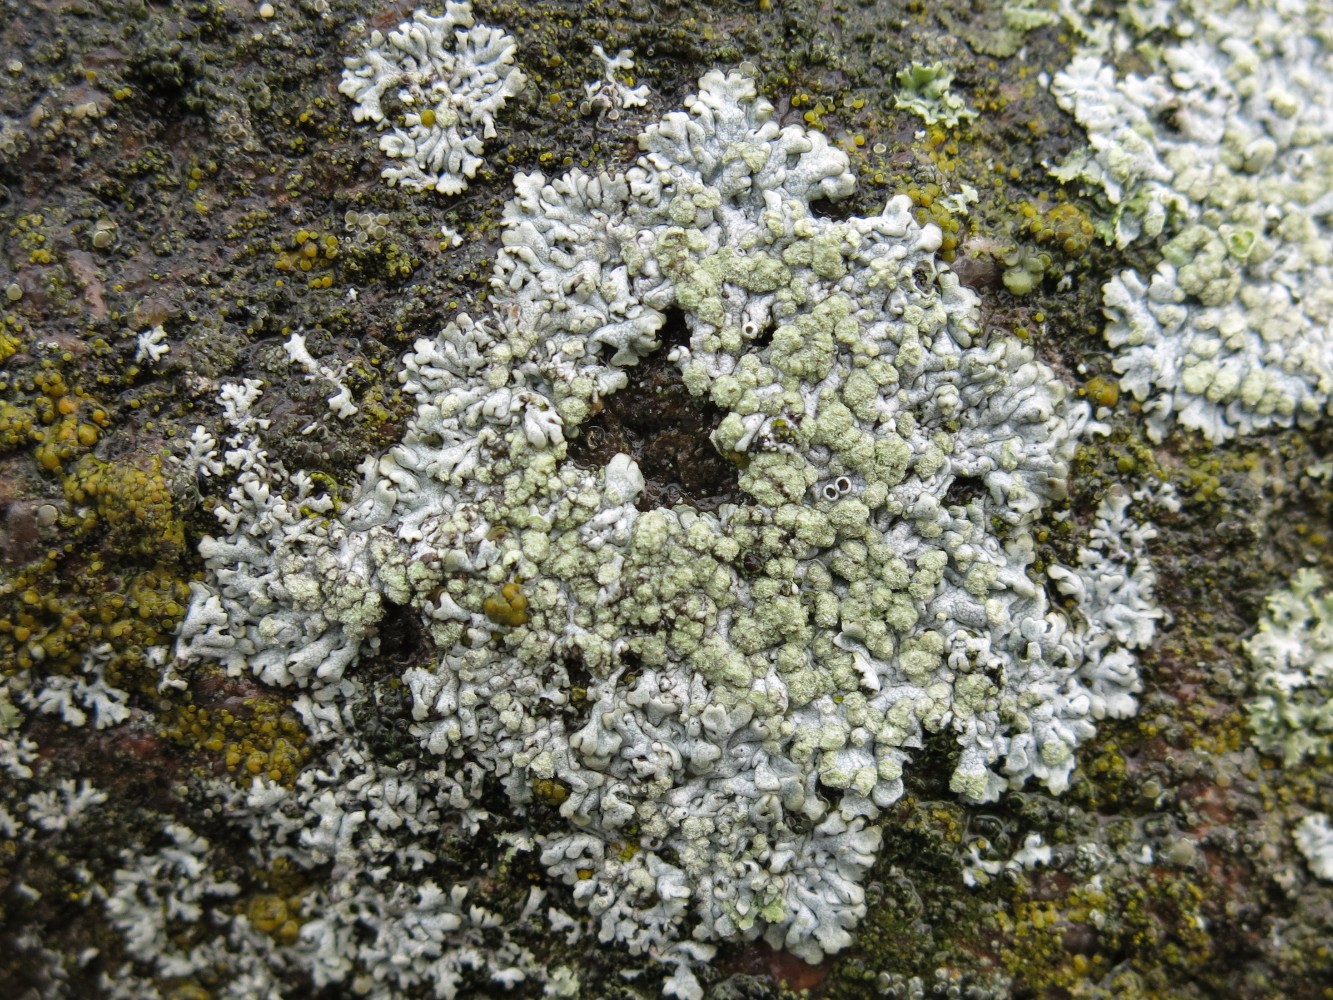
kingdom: Fungi
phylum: Ascomycota
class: Lecanoromycetes
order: Caliciales
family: Physciaceae
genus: Physcia
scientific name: Physcia caesia
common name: blågrå rosetlav
